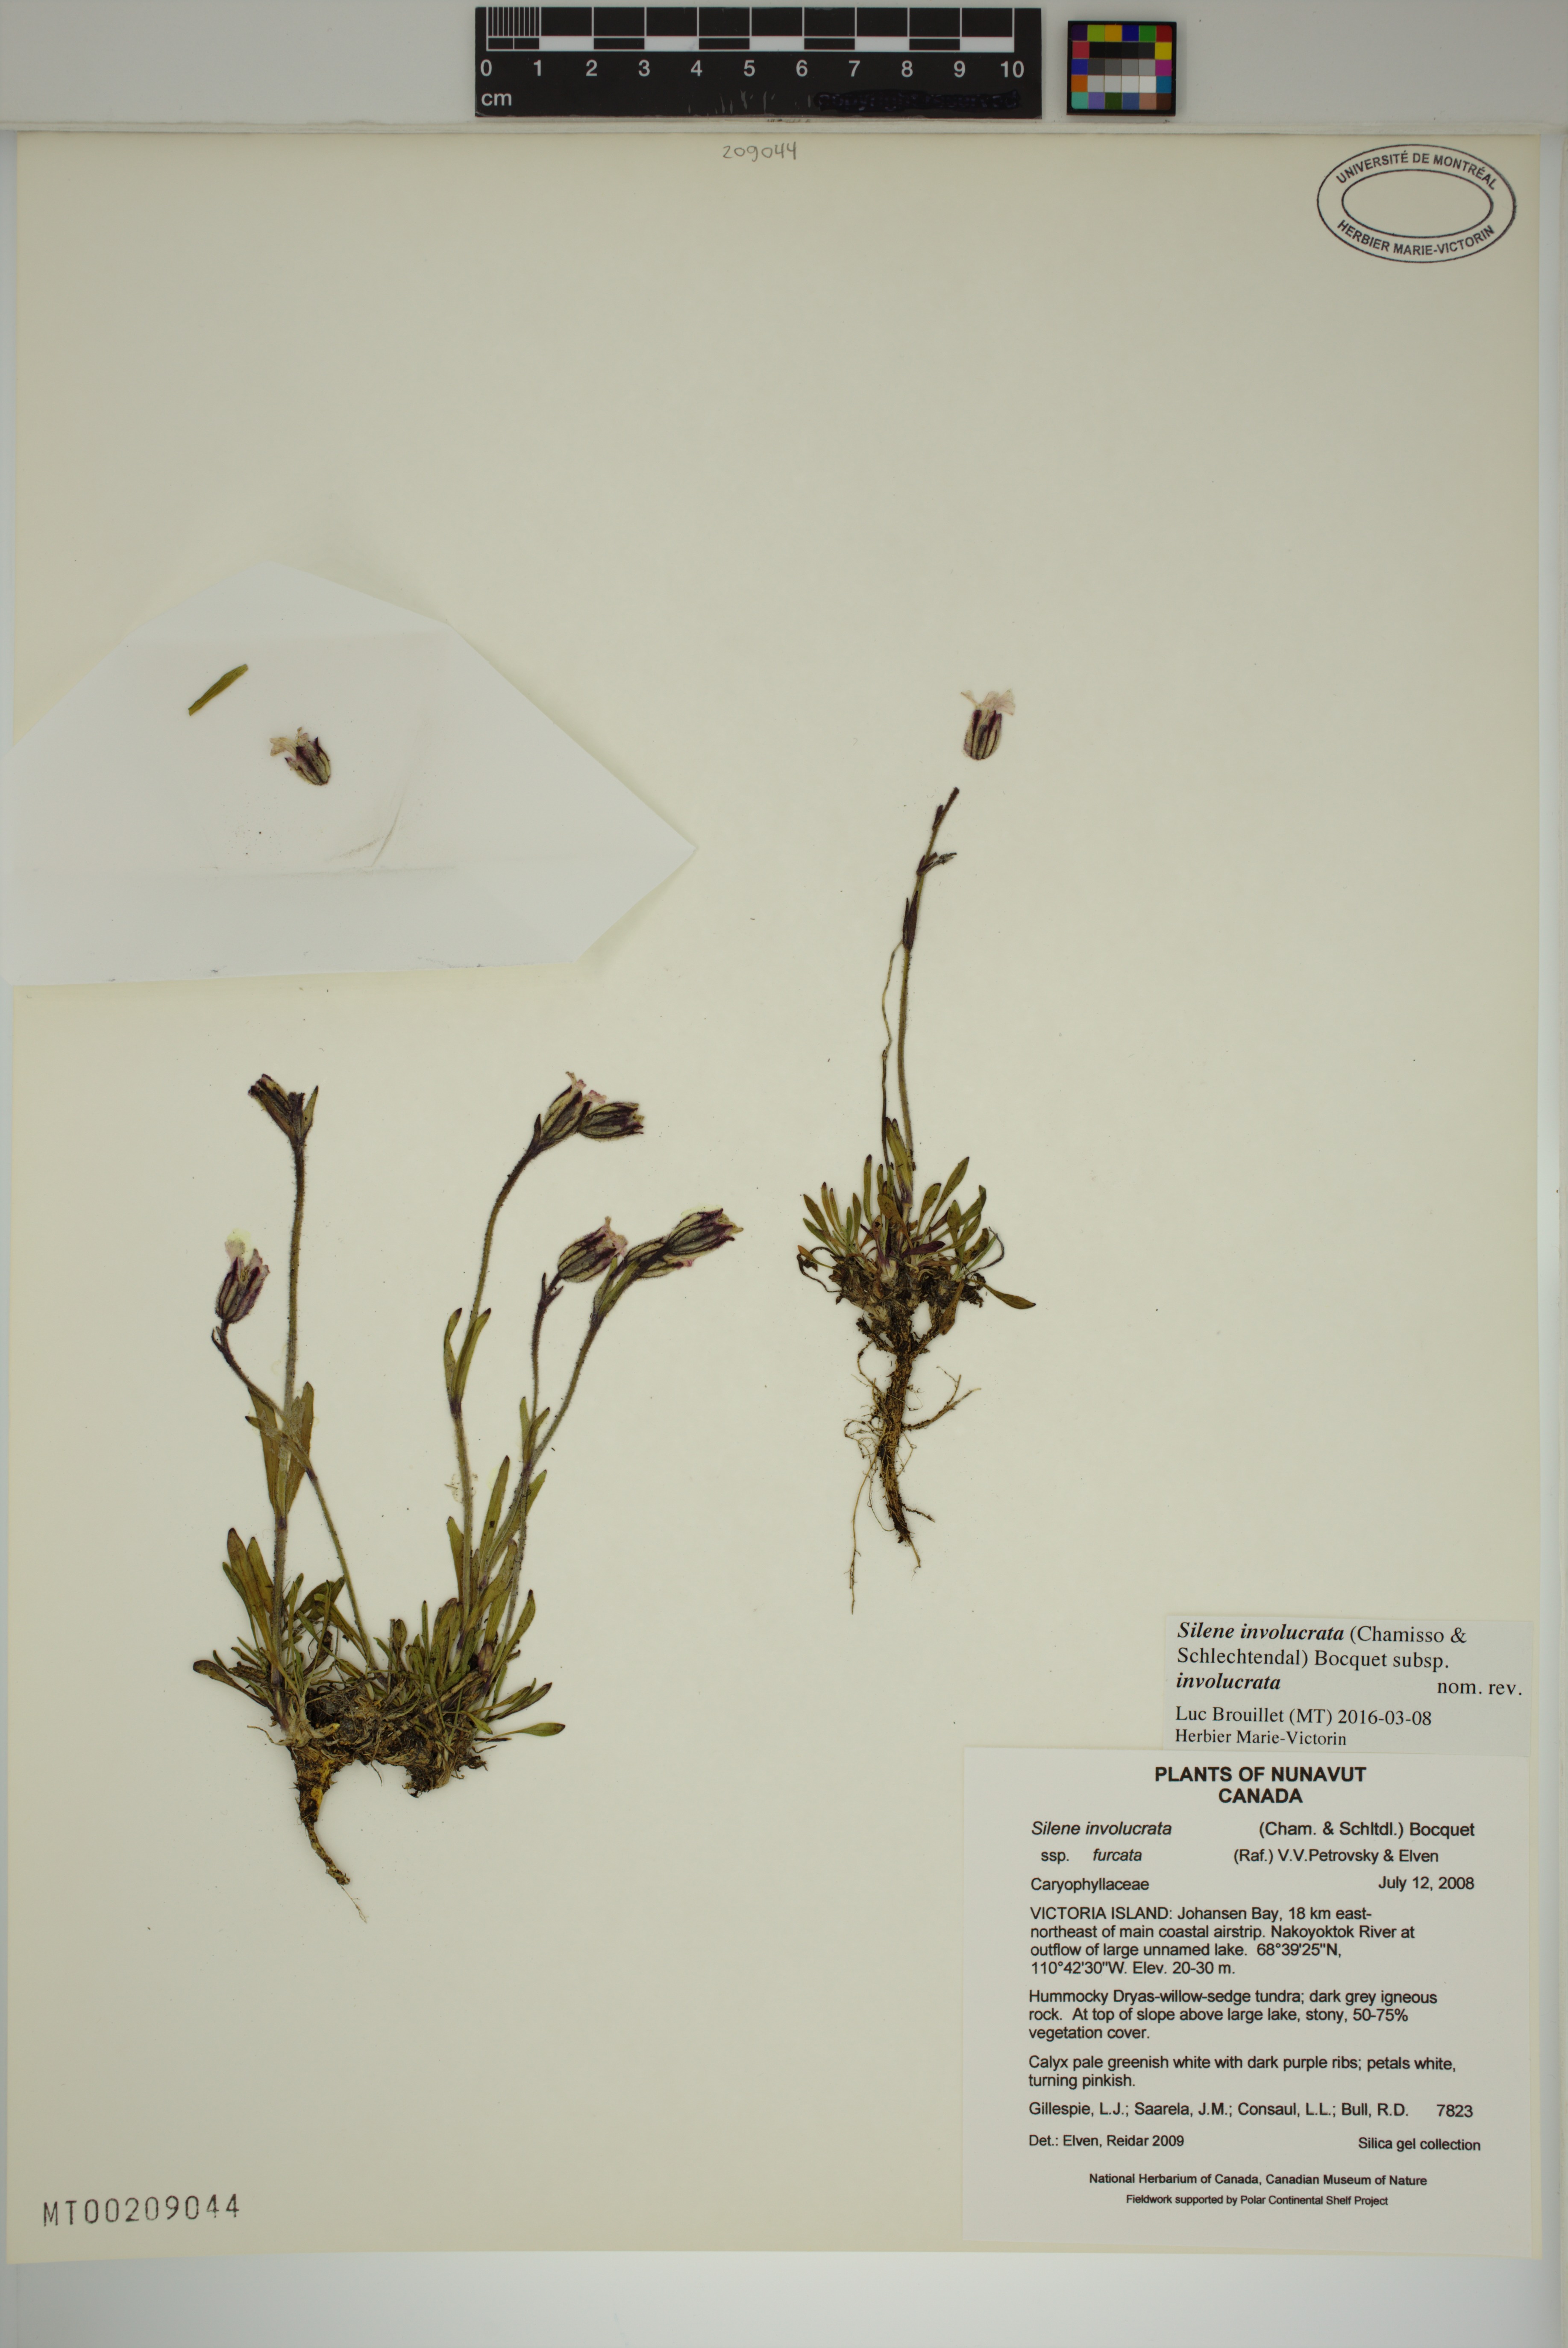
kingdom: Plantae
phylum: Tracheophyta
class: Magnoliopsida
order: Caryophyllales
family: Caryophyllaceae
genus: Silene
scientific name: Silene involucrata
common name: Greater arctic campion
